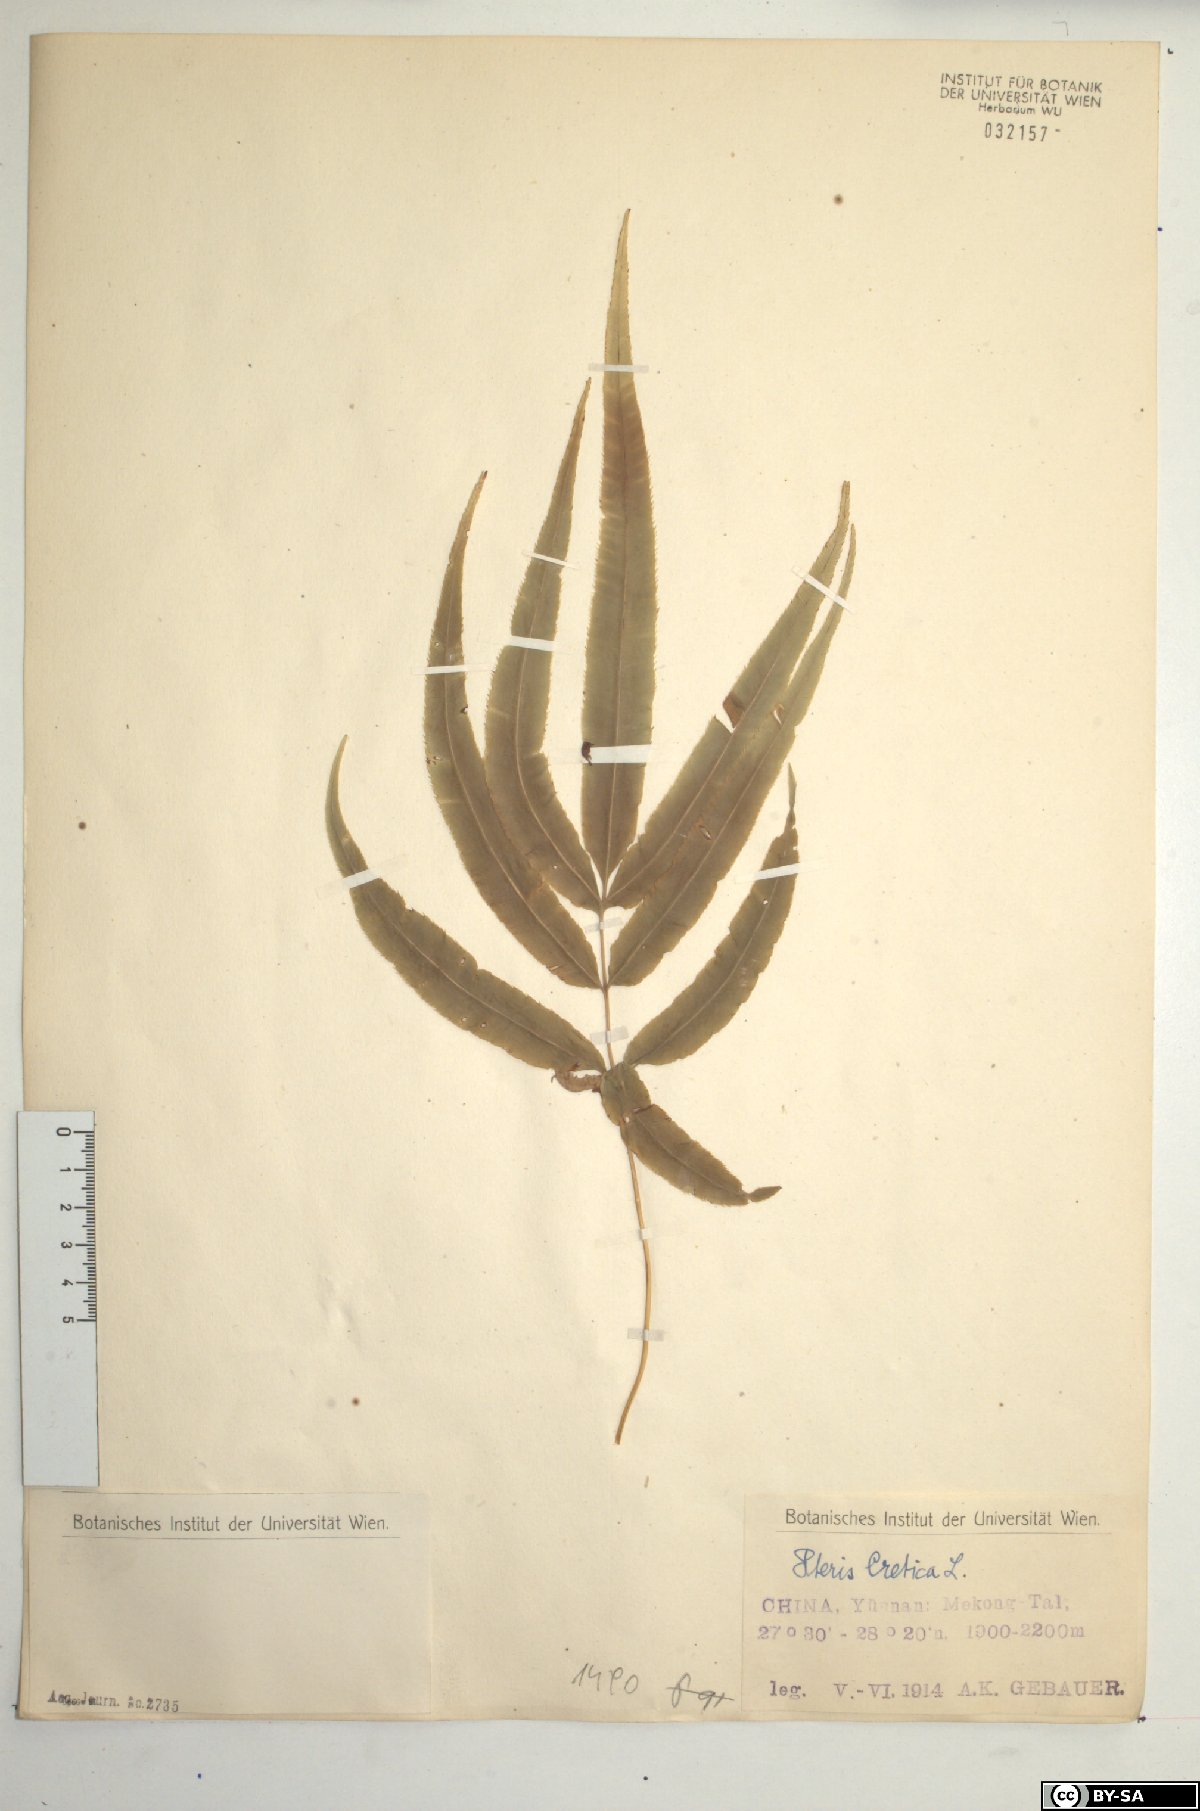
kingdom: Plantae
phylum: Tracheophyta
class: Polypodiopsida
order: Polypodiales
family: Pteridaceae
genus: Pteris
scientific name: Pteris cretica
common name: Ribbon fern
